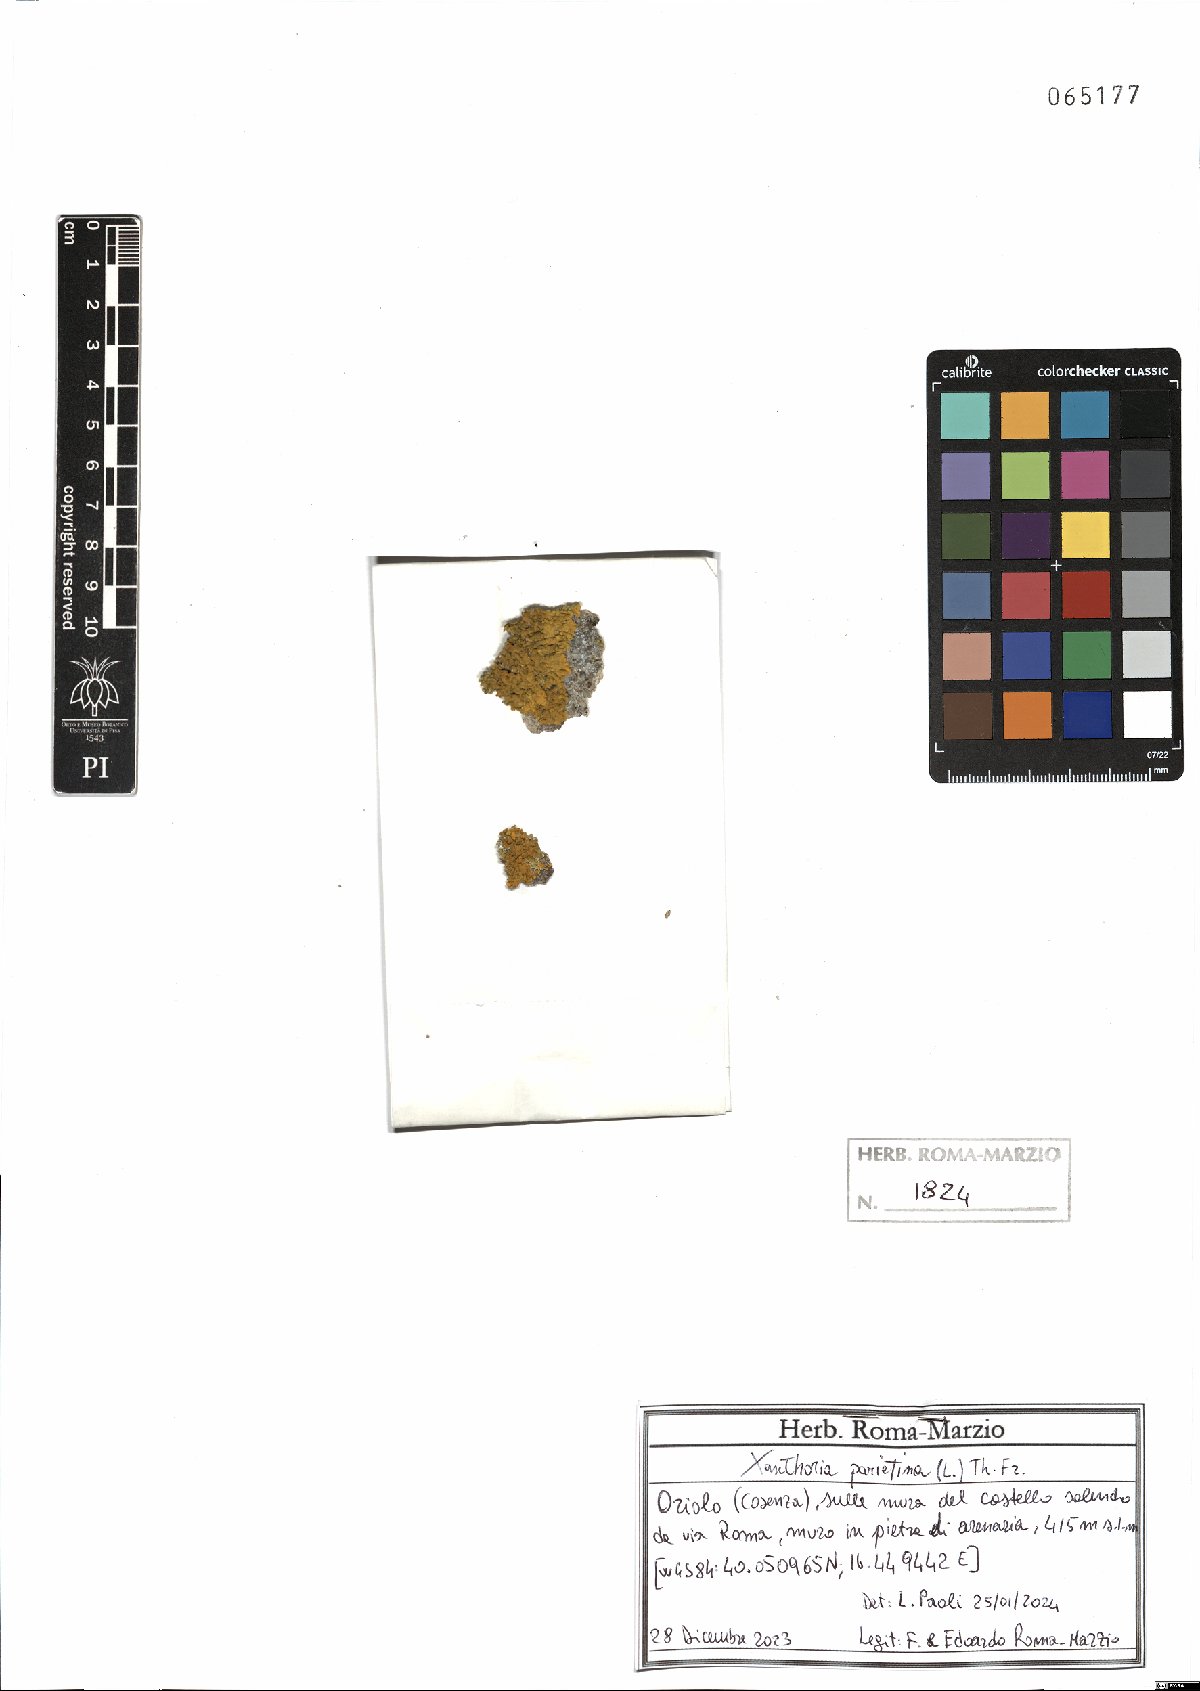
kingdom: Fungi
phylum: Ascomycota
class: Lecanoromycetes
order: Teloschistales
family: Teloschistaceae
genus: Xanthoria
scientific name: Xanthoria parietina
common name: Common orange lichen
